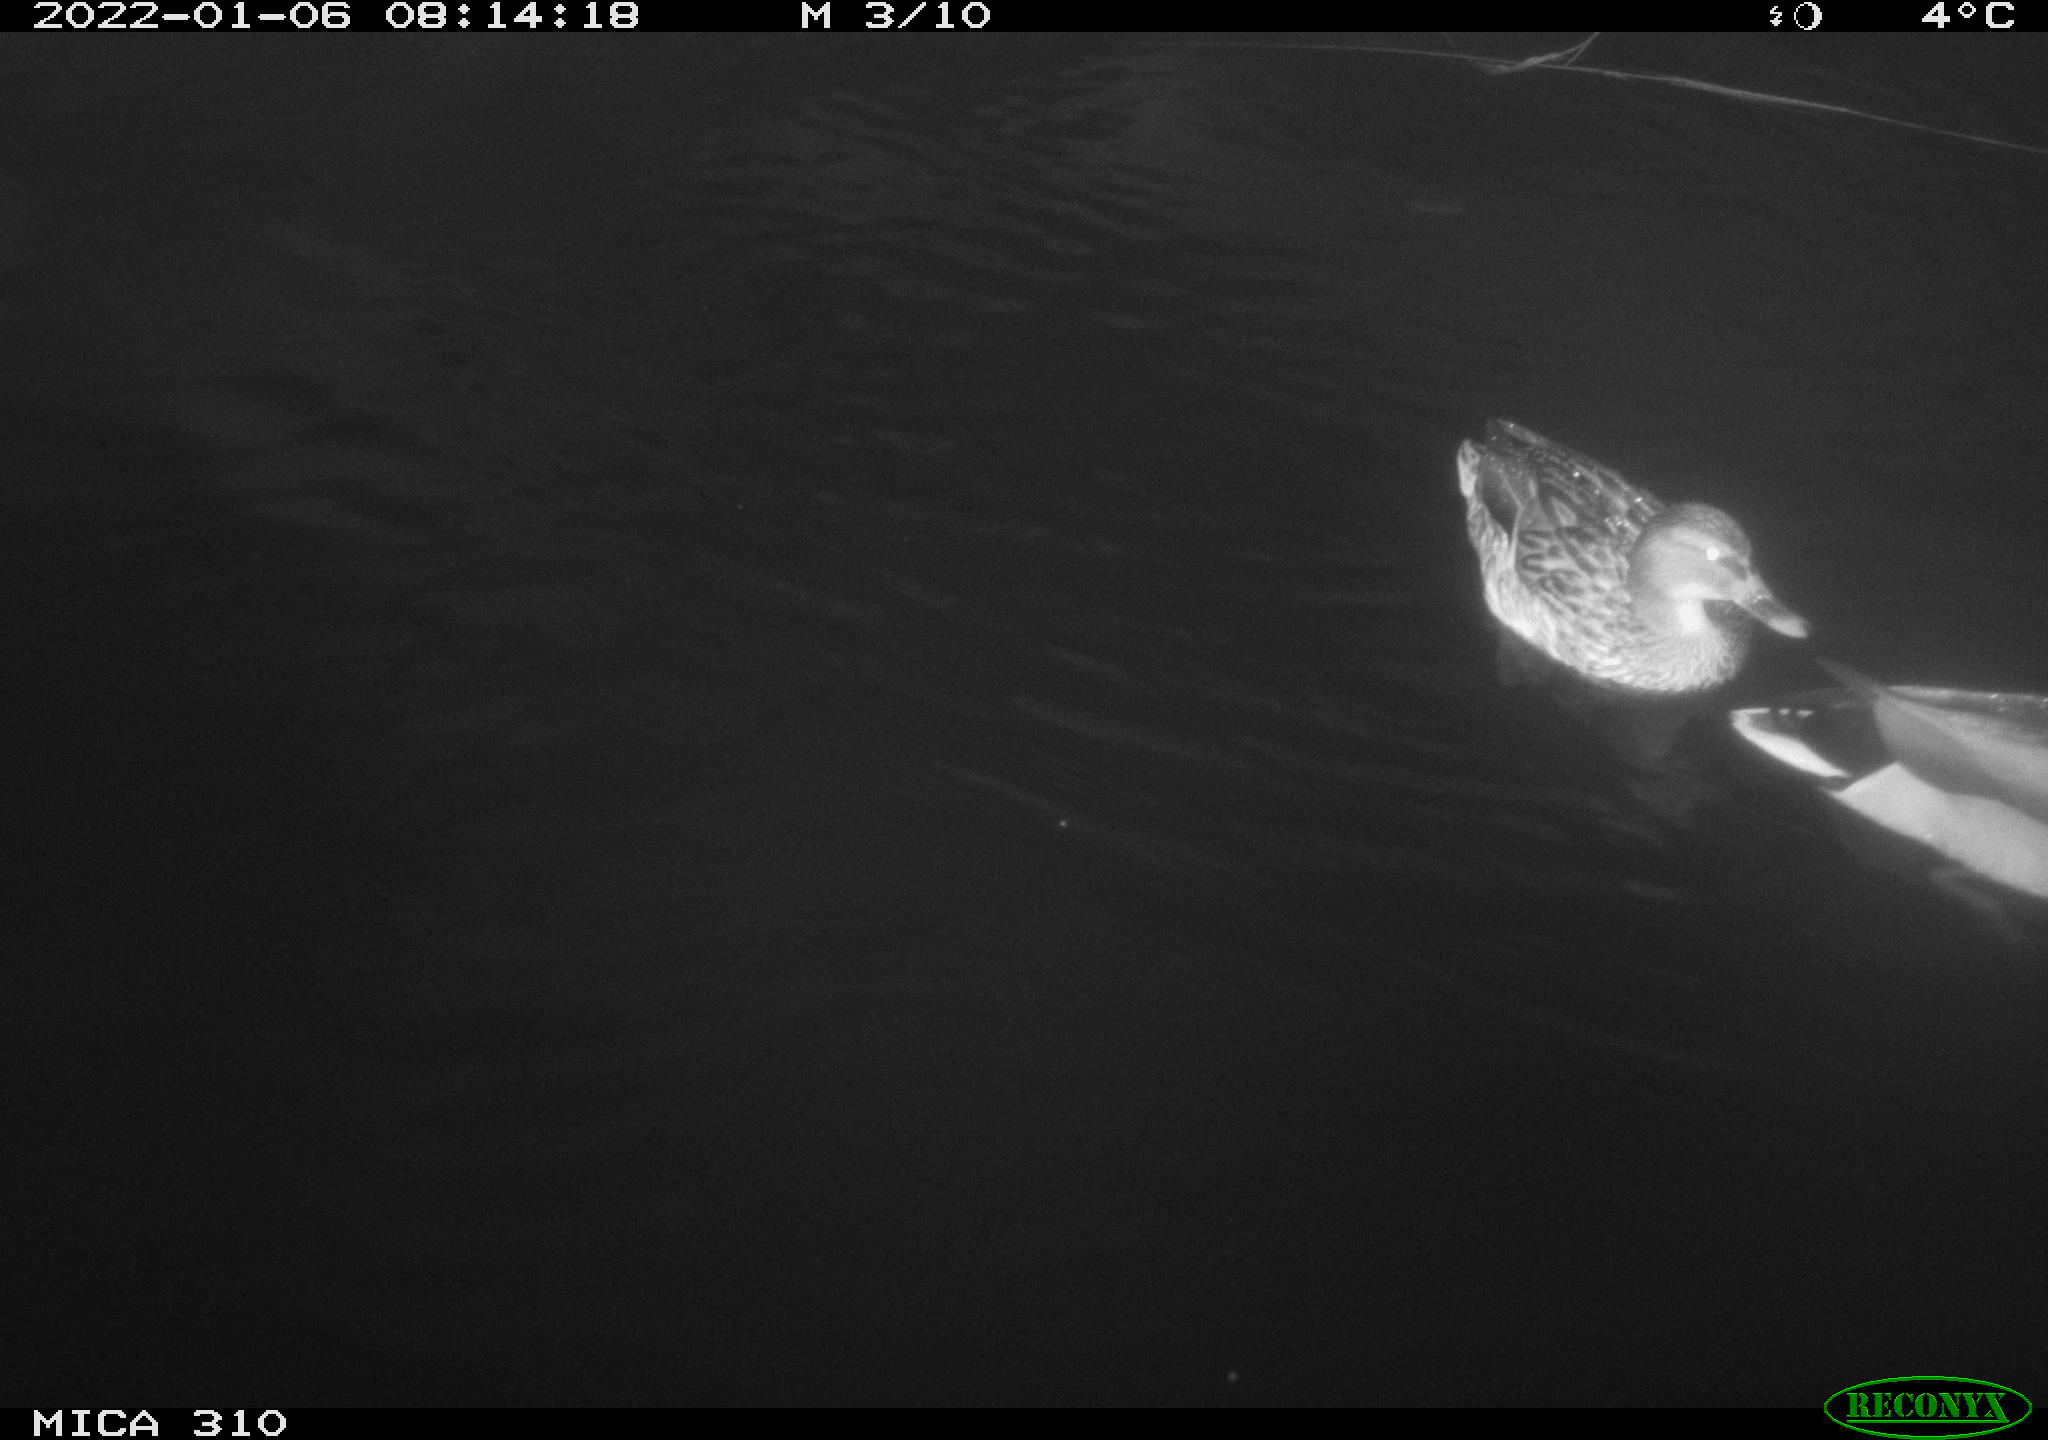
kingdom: Animalia
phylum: Chordata
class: Aves
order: Anseriformes
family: Anatidae
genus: Anas
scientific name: Anas
